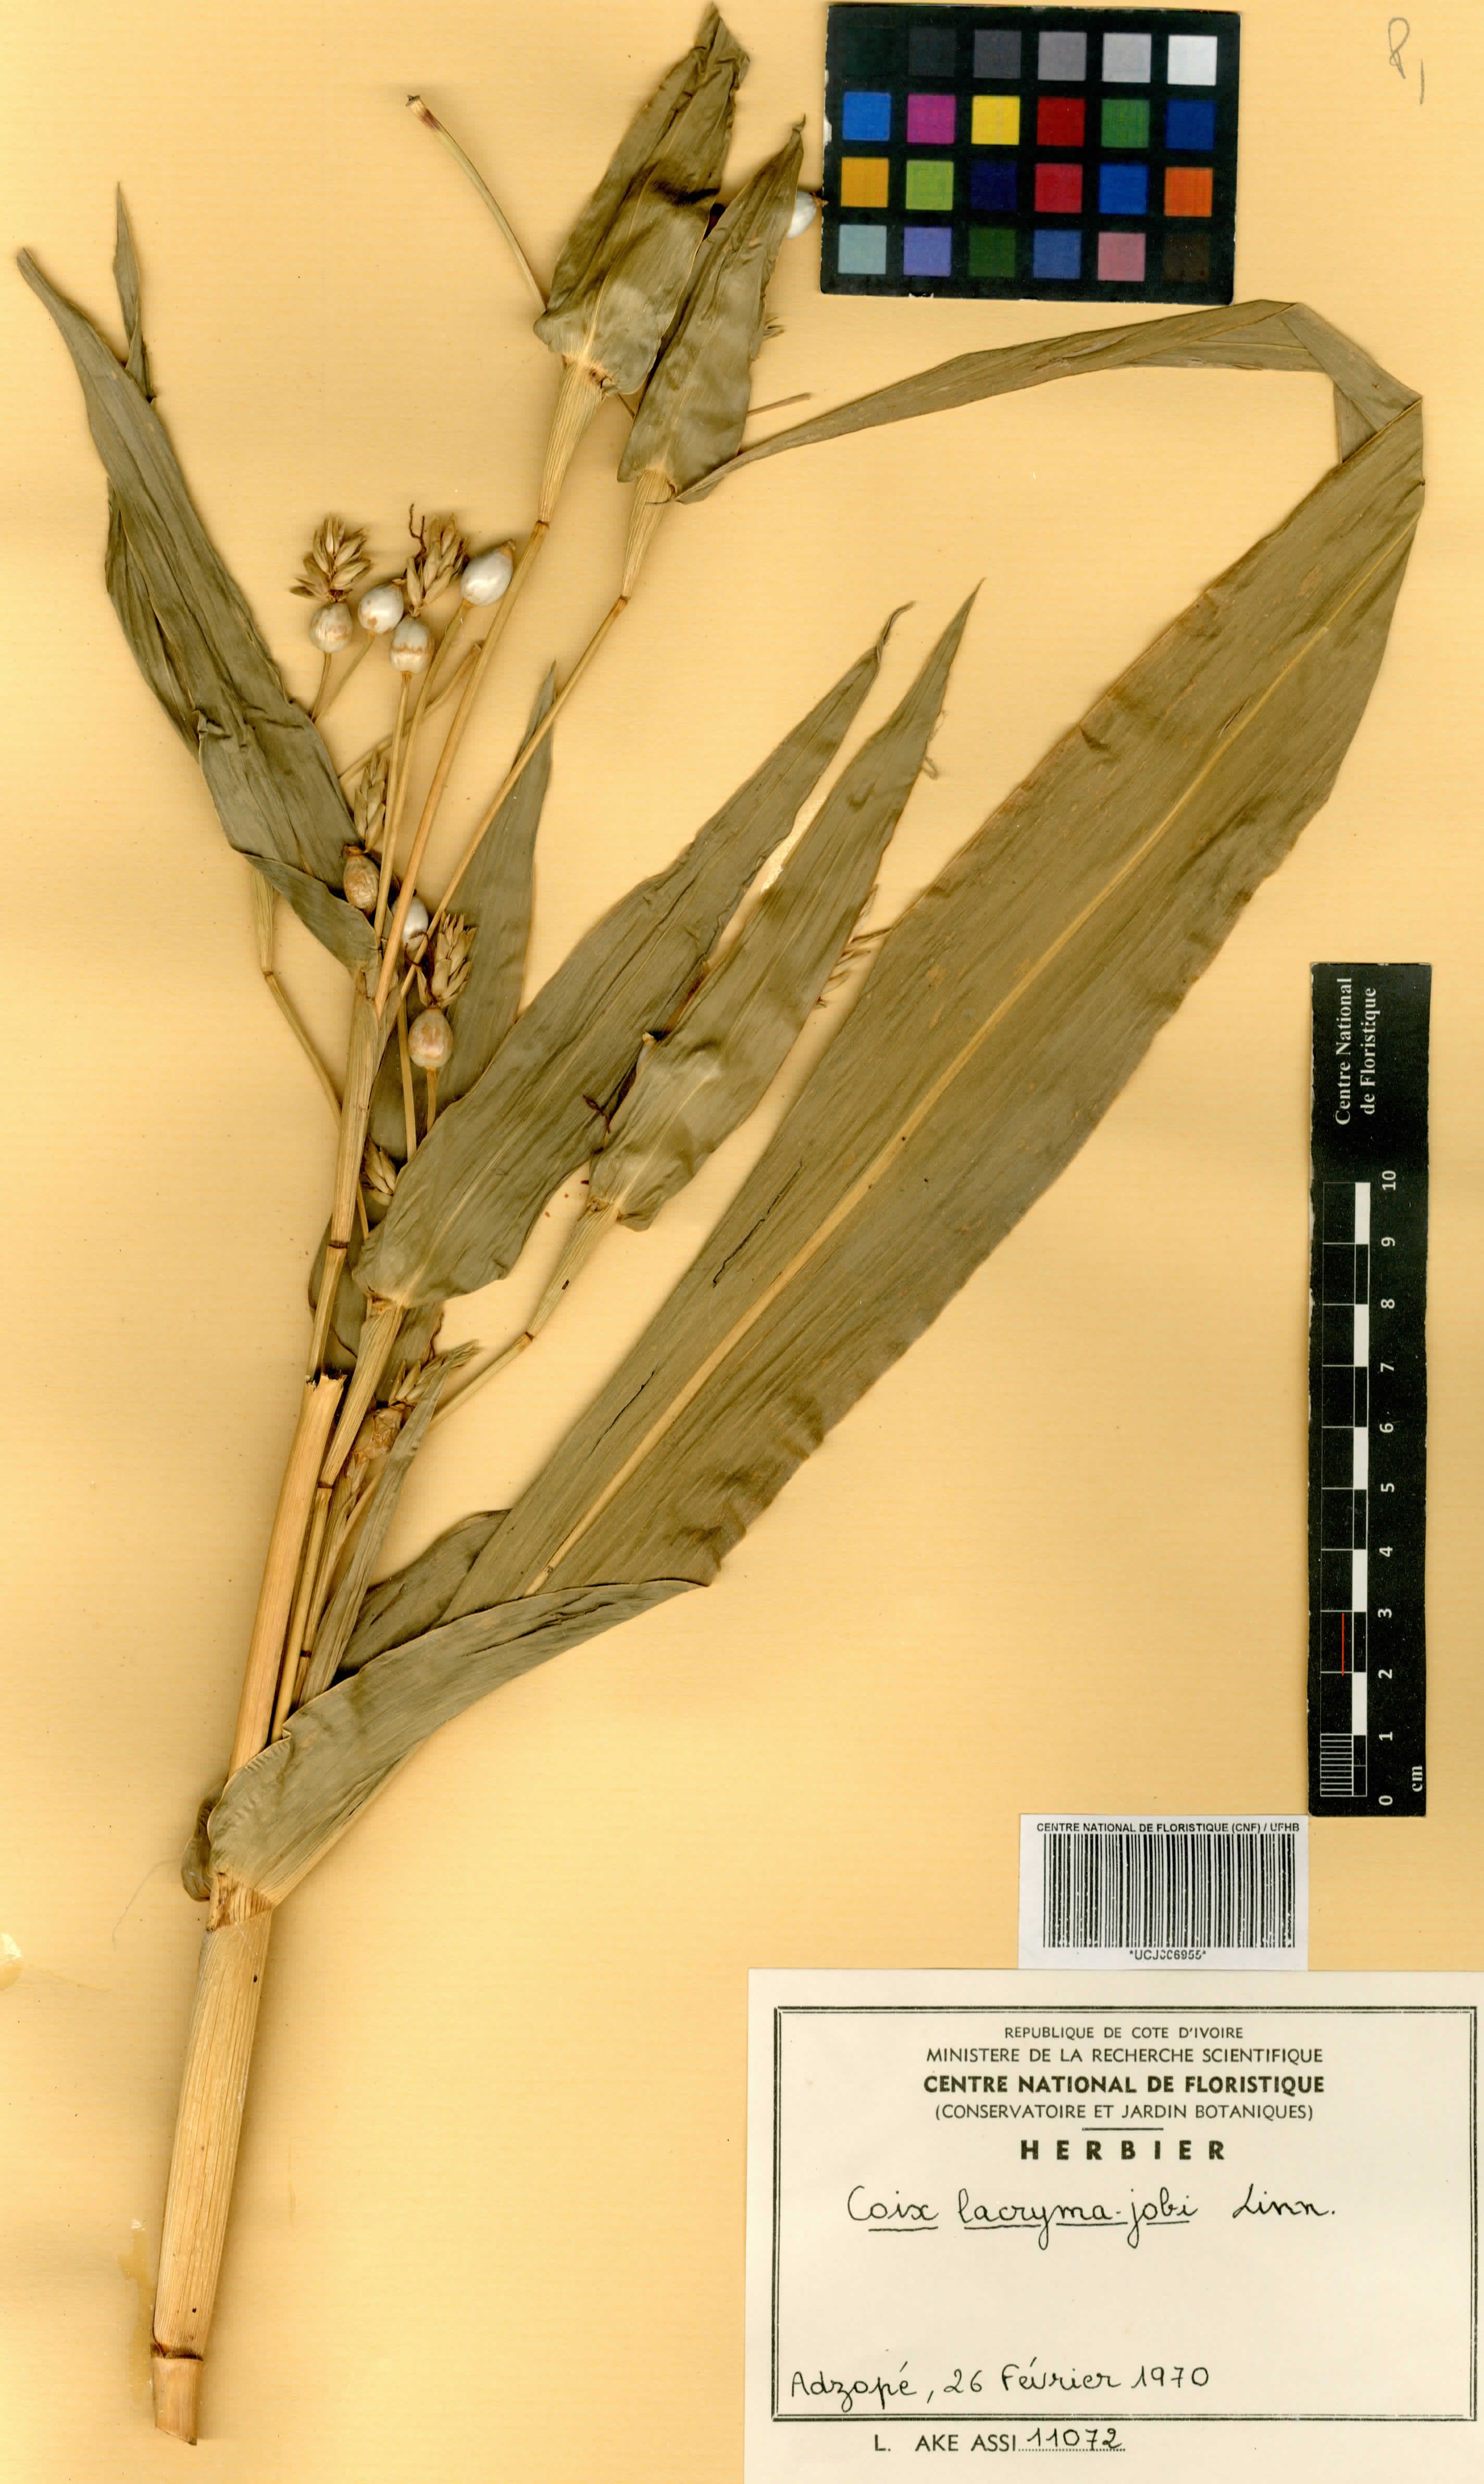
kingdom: Plantae
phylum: Tracheophyta
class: Liliopsida
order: Poales
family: Poaceae
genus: Coix
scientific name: Coix lacryma-jobi
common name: Job's tears
